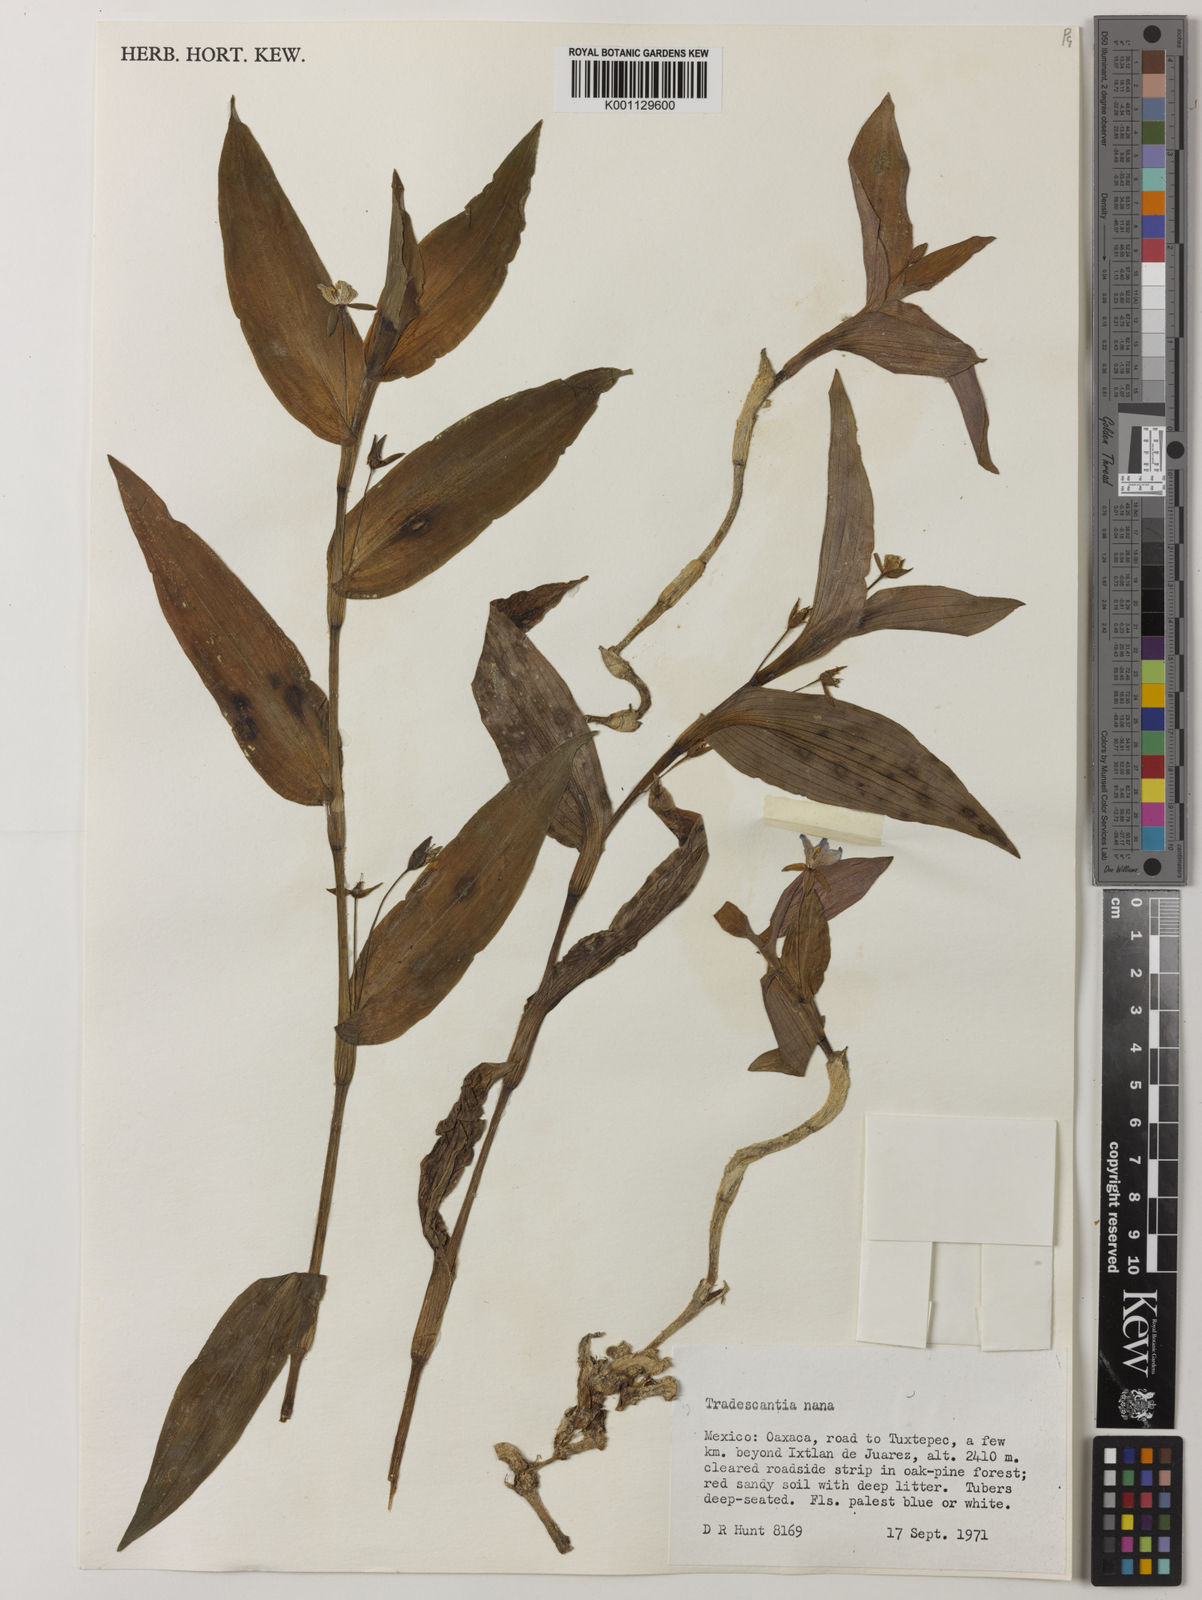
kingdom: Plantae
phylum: Tracheophyta
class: Liliopsida
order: Commelinales
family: Commelinaceae
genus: Matudanthus
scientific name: Matudanthus nanus
